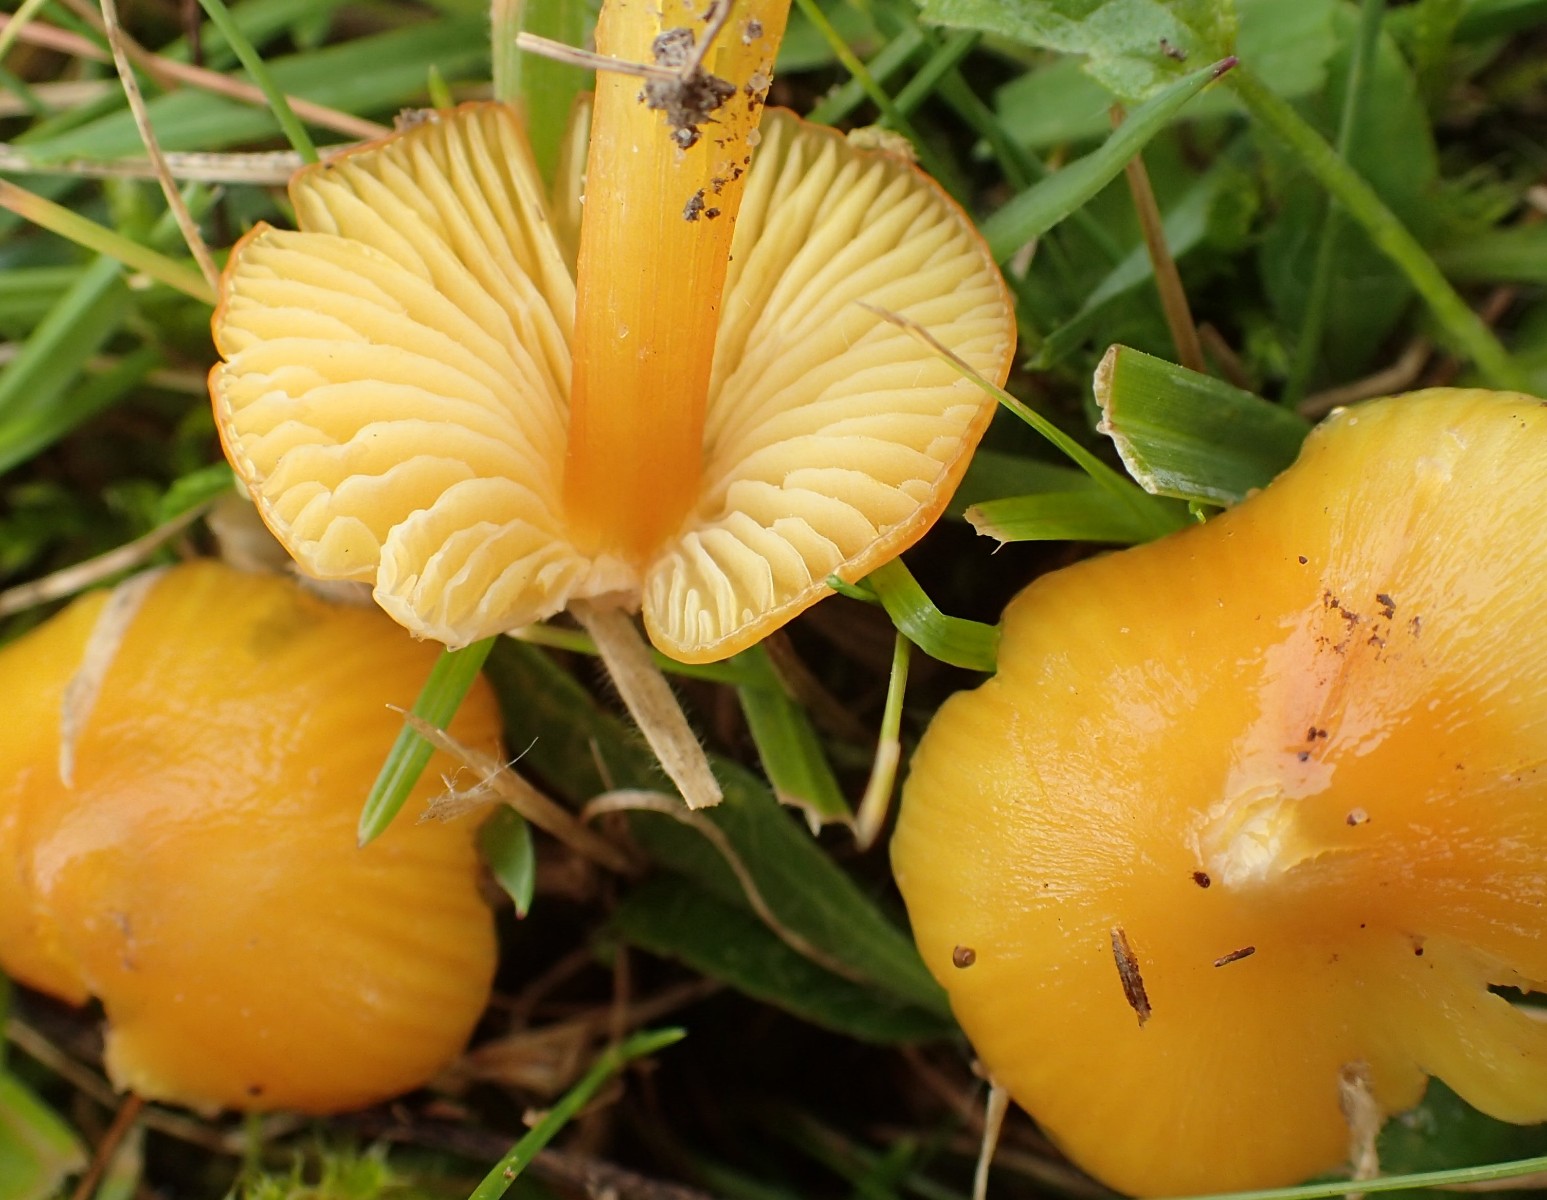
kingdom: Fungi
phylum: Basidiomycota
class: Agaricomycetes
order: Agaricales
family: Hygrophoraceae
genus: Hygrocybe
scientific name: Hygrocybe acutoconica
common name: Konrads vokshat
